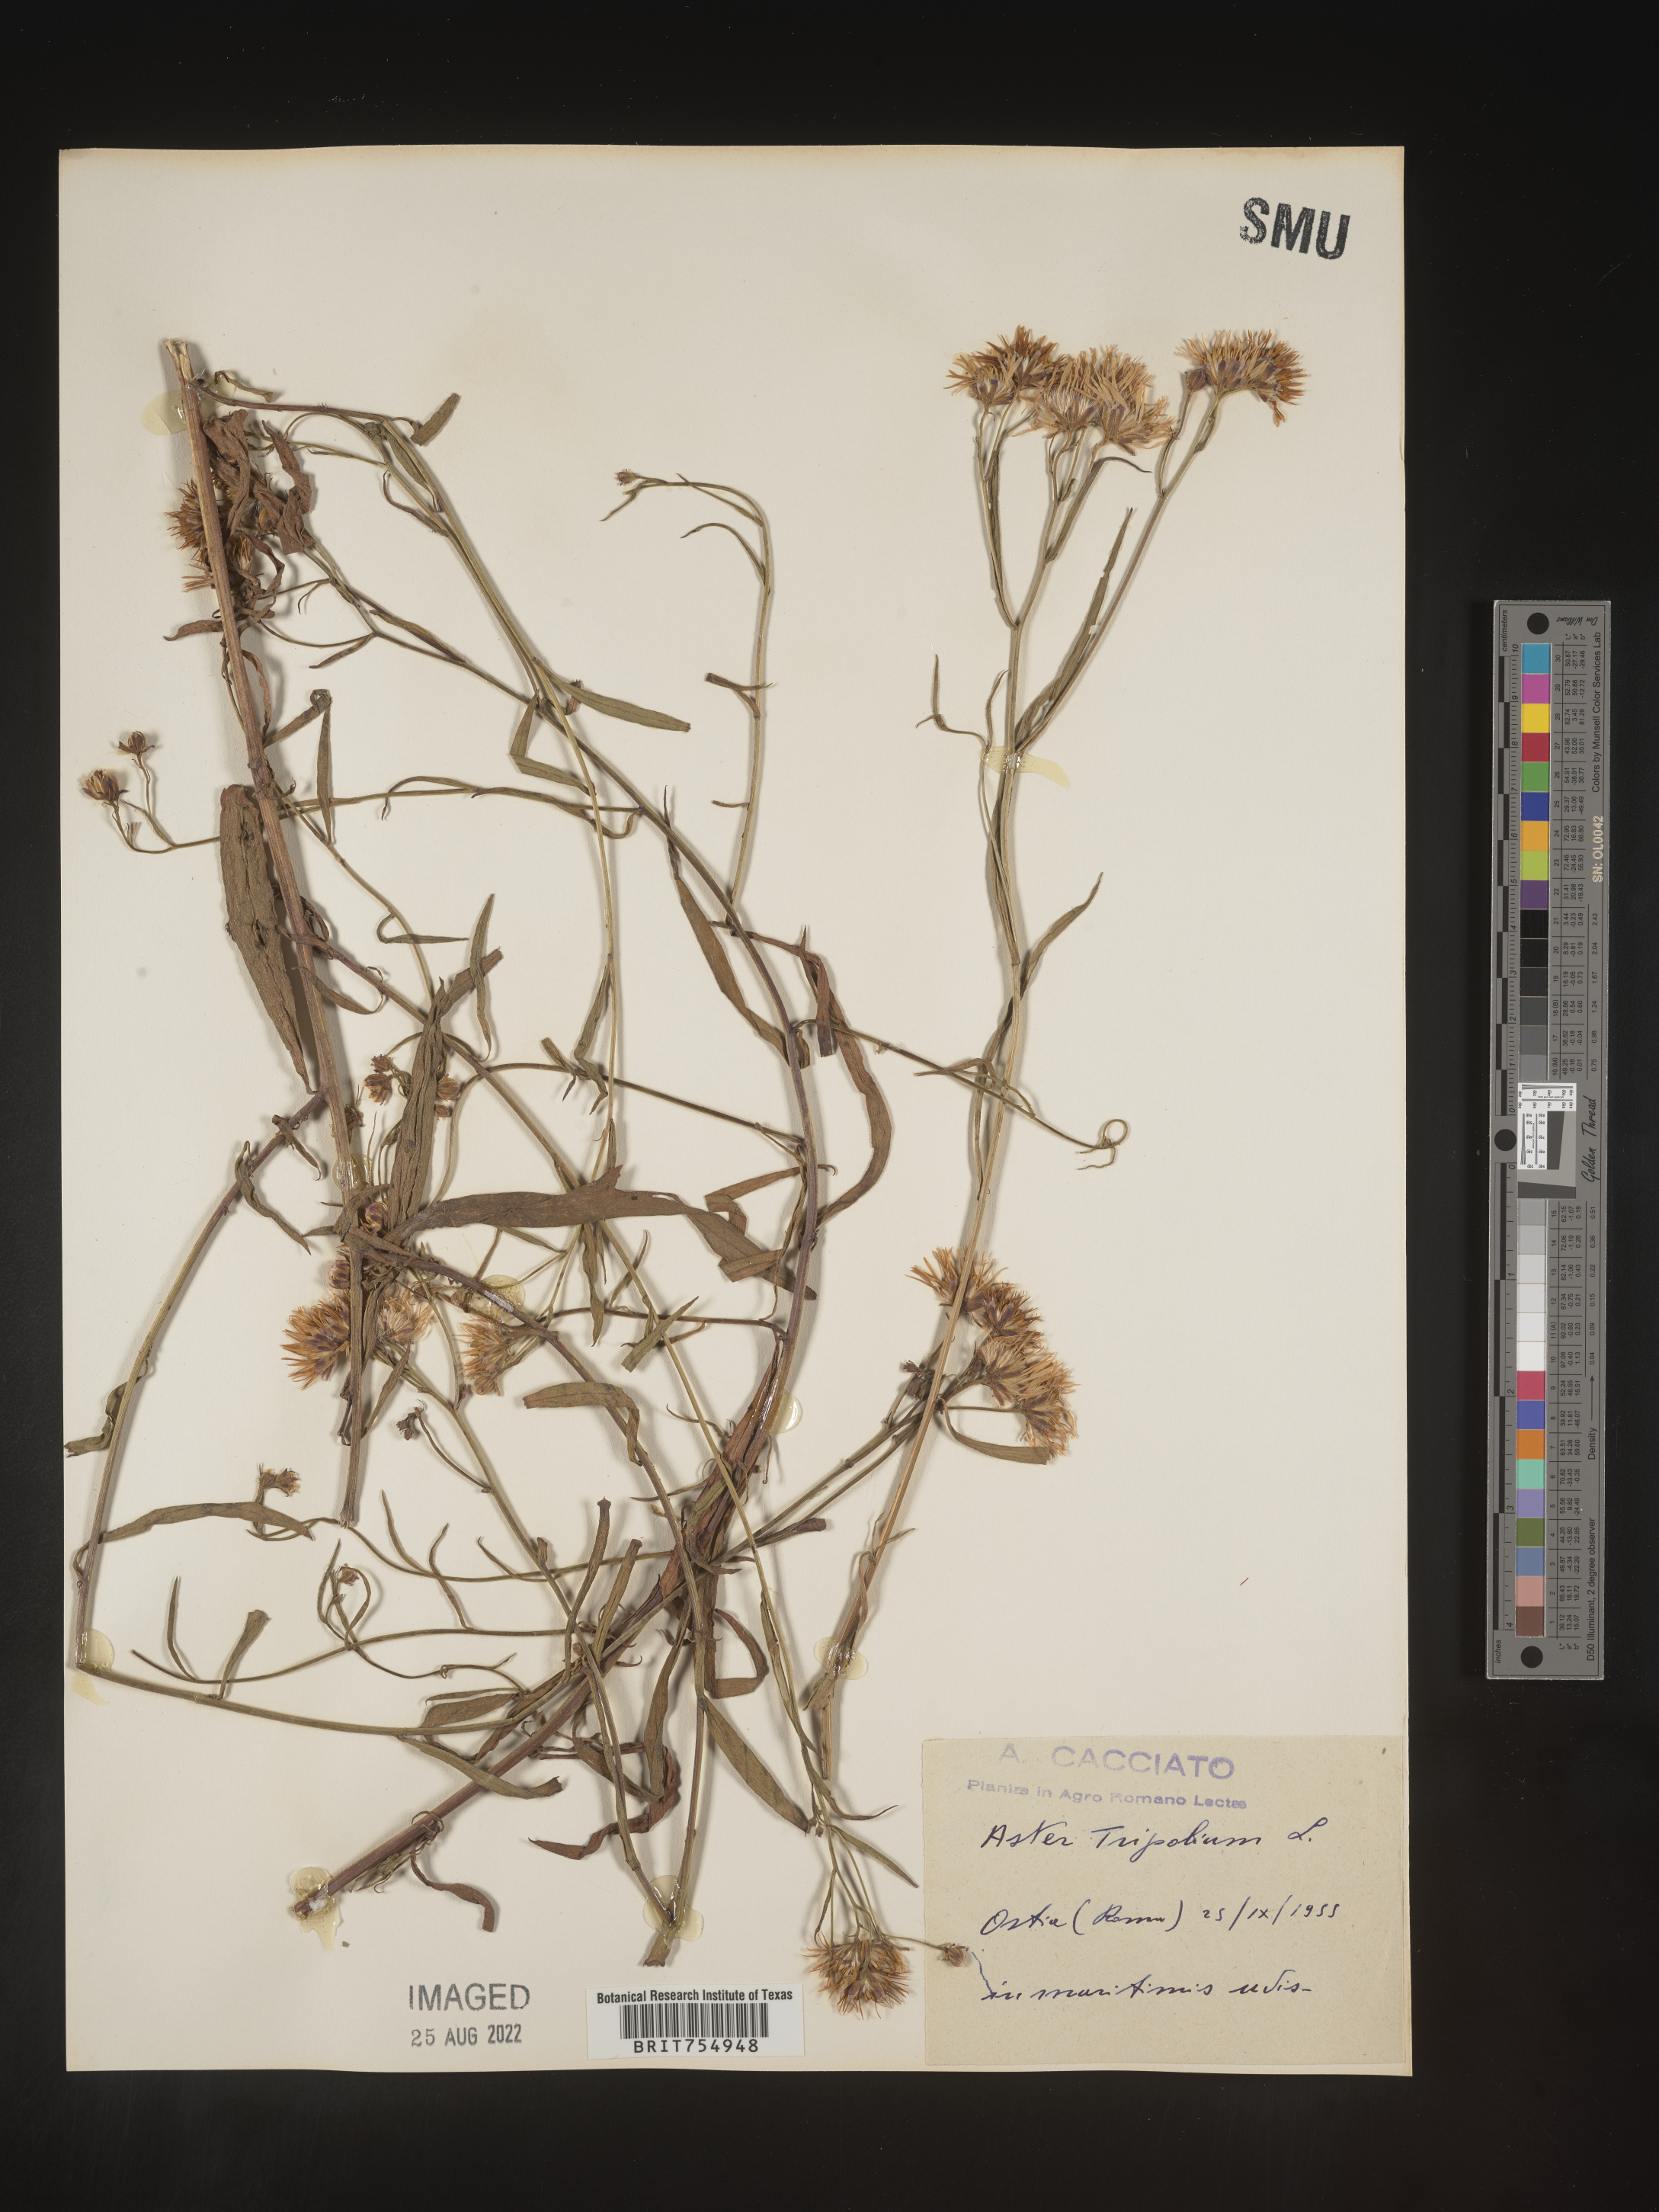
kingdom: Plantae
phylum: Tracheophyta
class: Magnoliopsida
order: Asterales
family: Asteraceae
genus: Symphyotrichum
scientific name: Symphyotrichum
